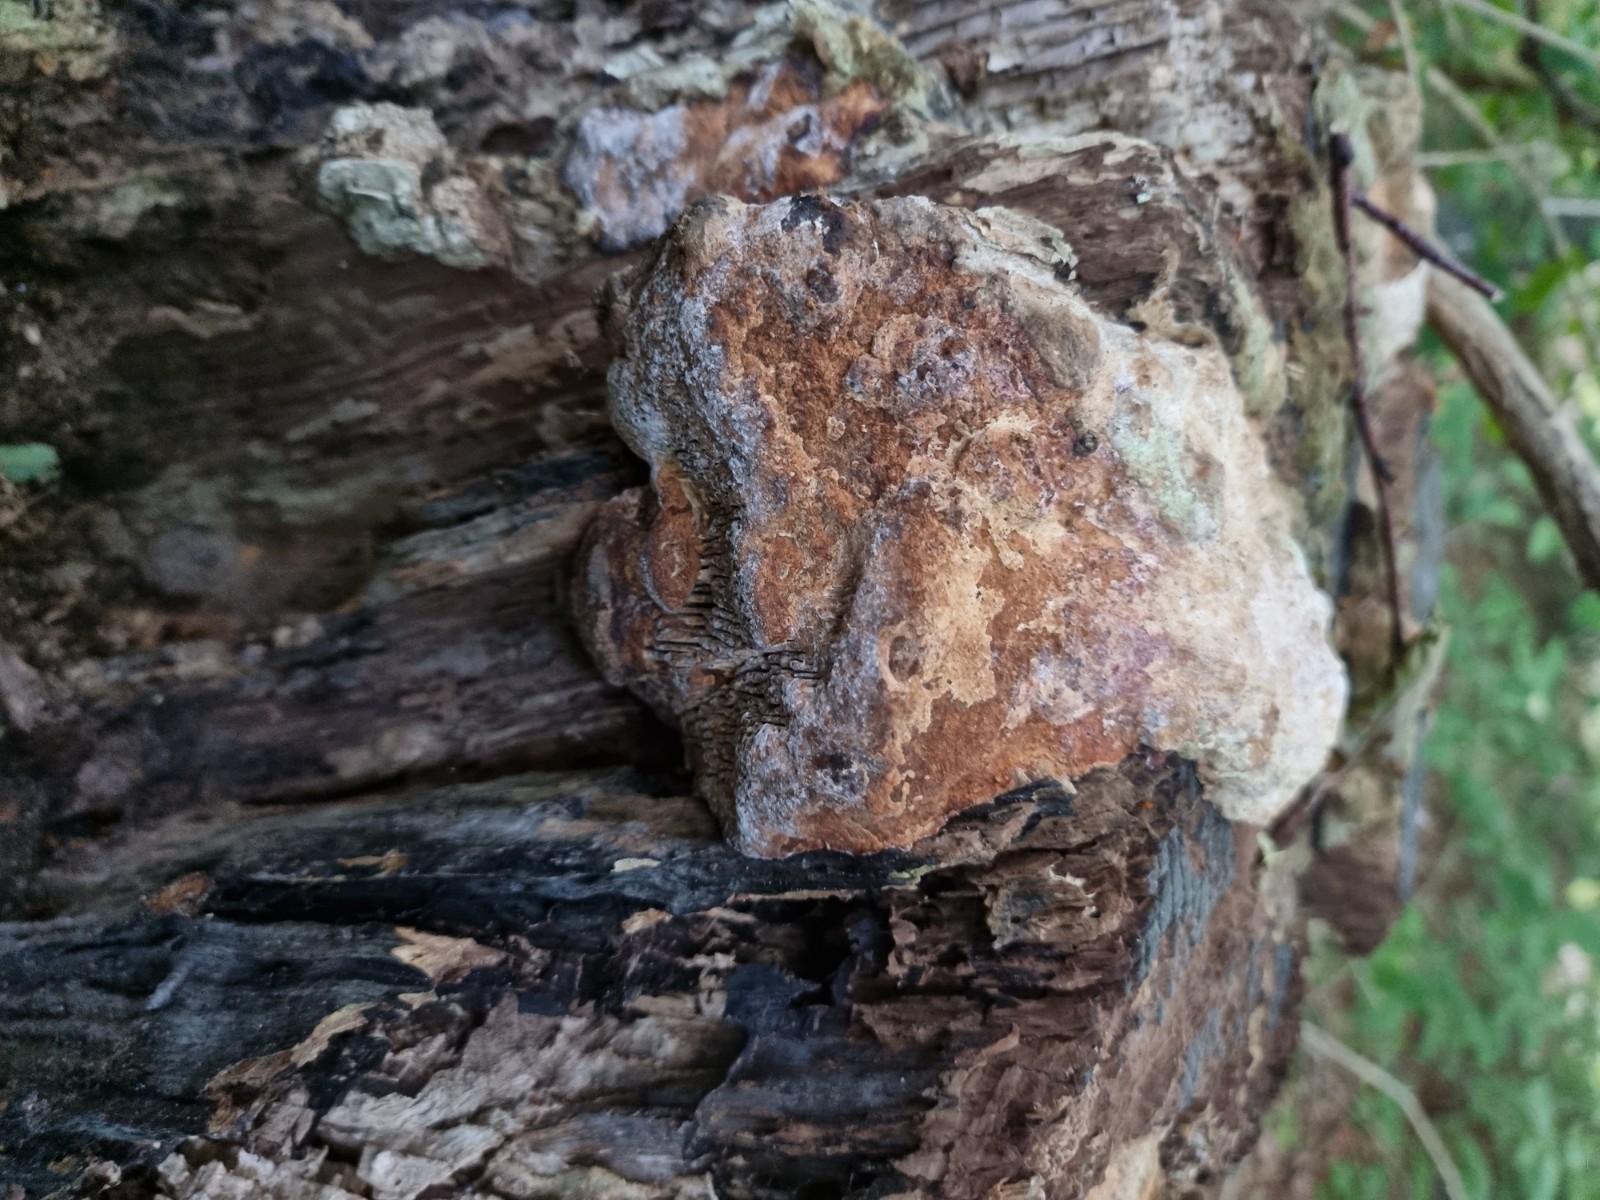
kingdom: Fungi
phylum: Basidiomycota
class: Agaricomycetes
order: Polyporales
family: Fomitopsidaceae
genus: Daedalea
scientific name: Daedalea quercina
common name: ege-labyrintsvamp
